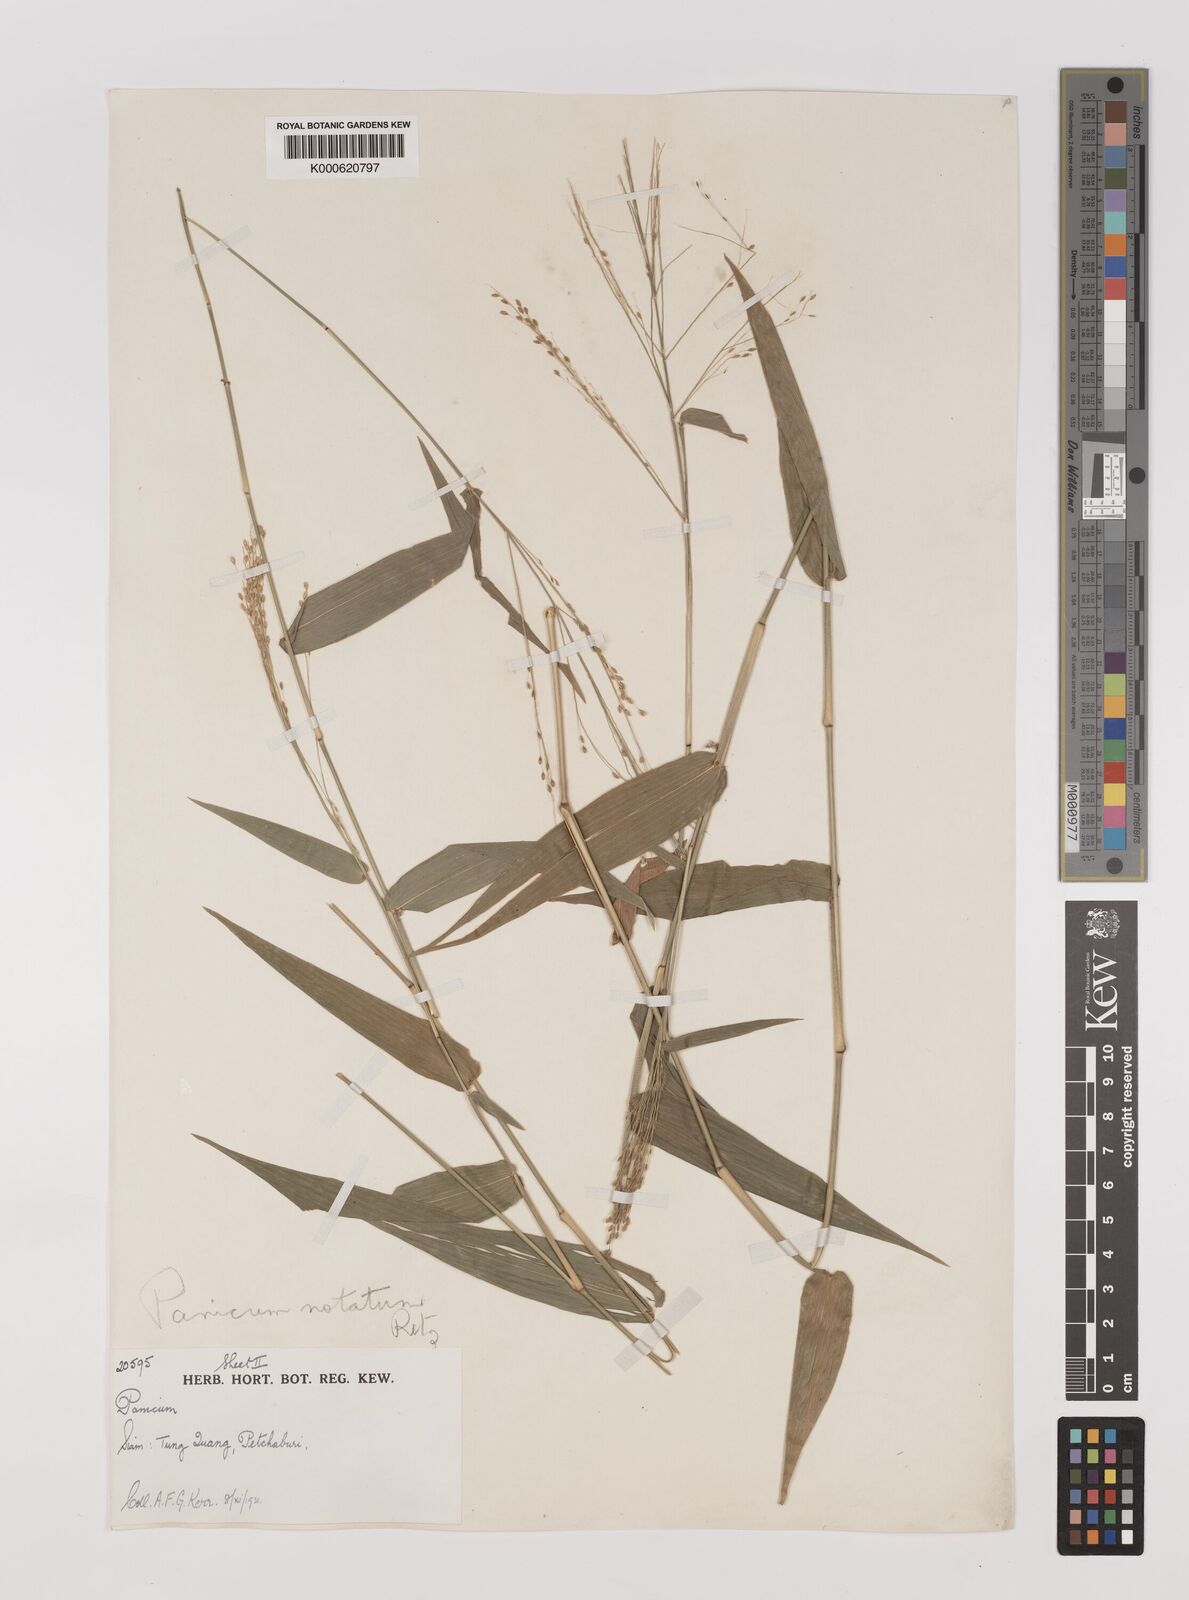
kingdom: Plantae
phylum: Tracheophyta
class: Liliopsida
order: Poales
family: Poaceae
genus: Panicum
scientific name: Panicum notatum
